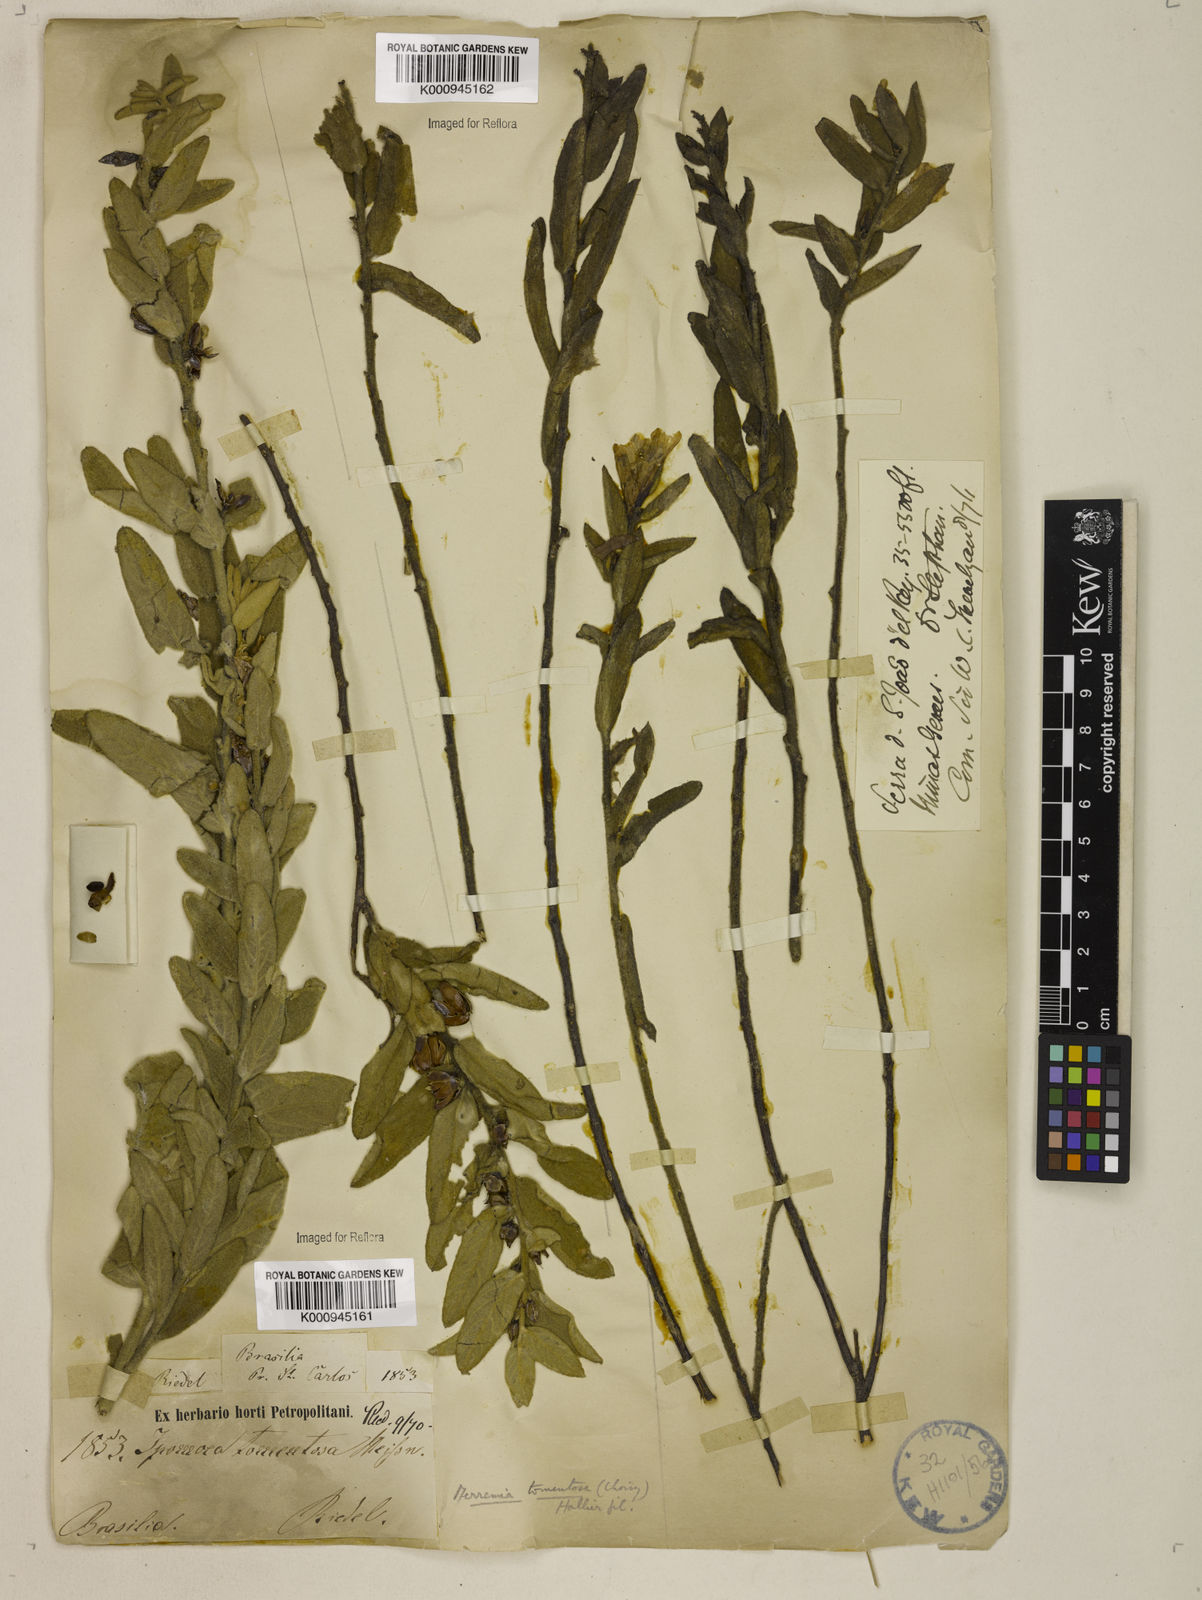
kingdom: Plantae
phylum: Tracheophyta
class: Magnoliopsida
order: Solanales
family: Convolvulaceae
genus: Distimake
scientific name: Distimake tomentosus
